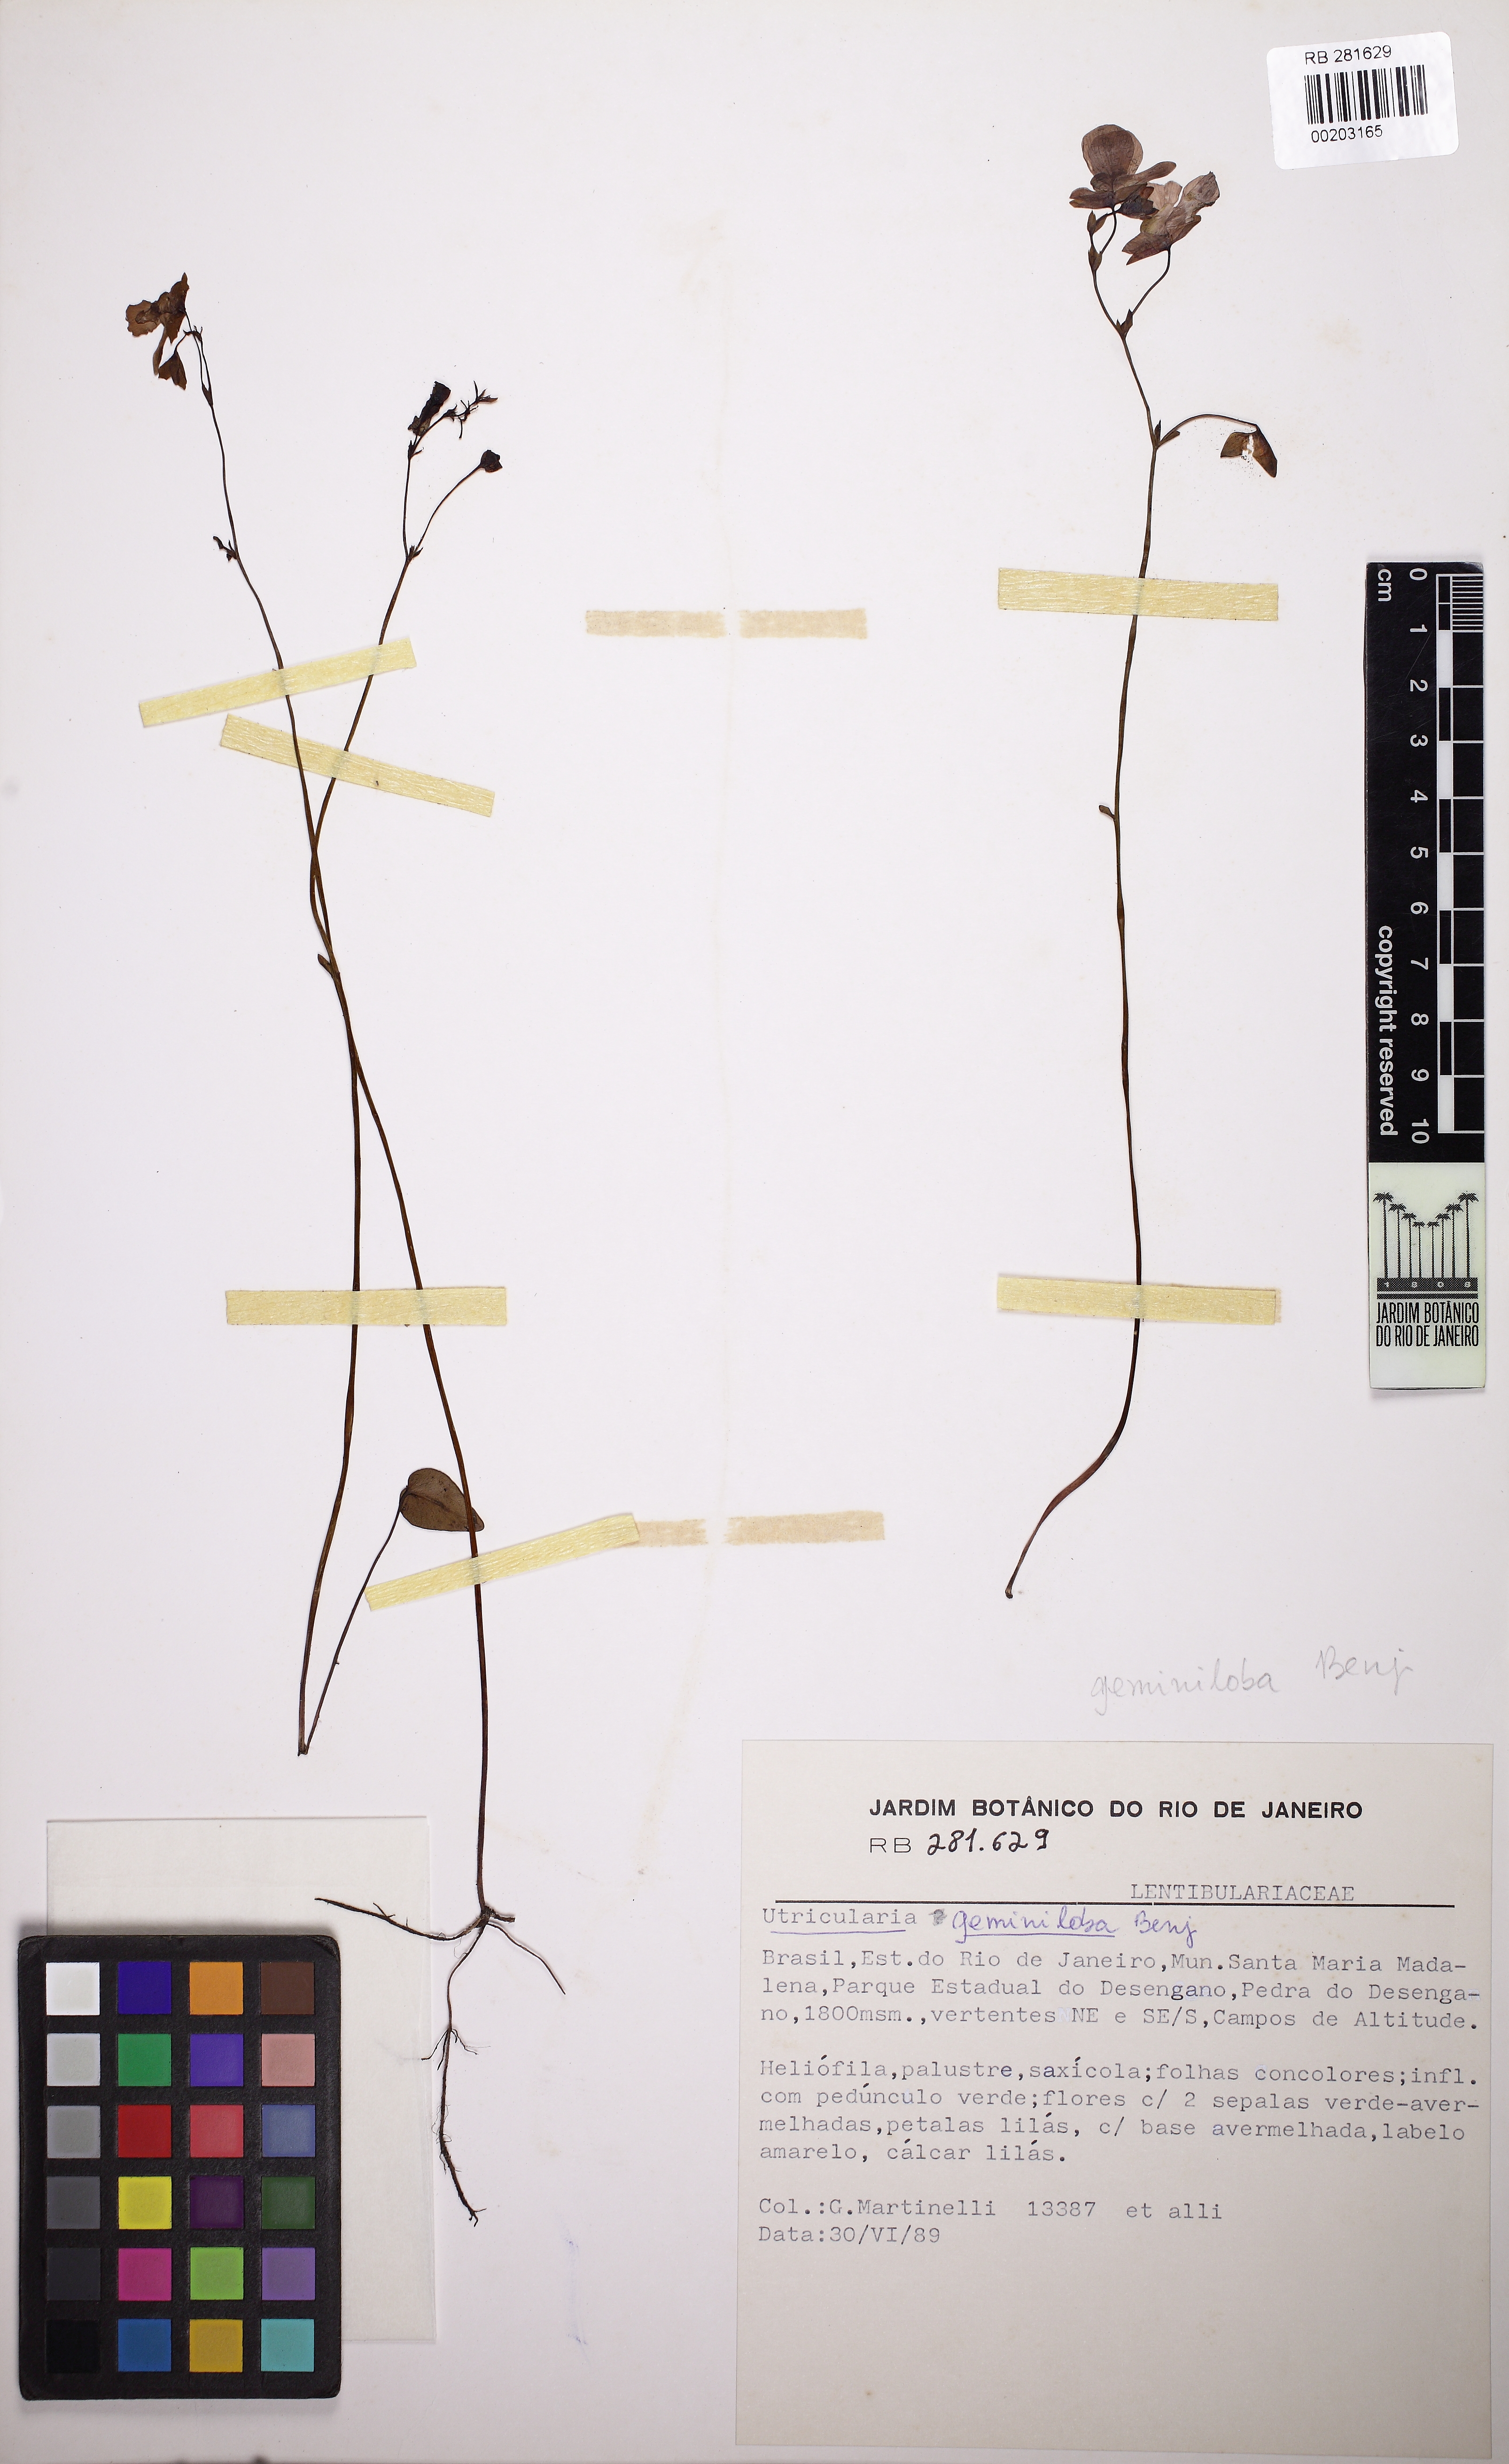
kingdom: Plantae
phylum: Tracheophyta
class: Magnoliopsida
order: Lamiales
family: Lentibulariaceae
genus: Utricularia
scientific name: Utricularia geminiloba
